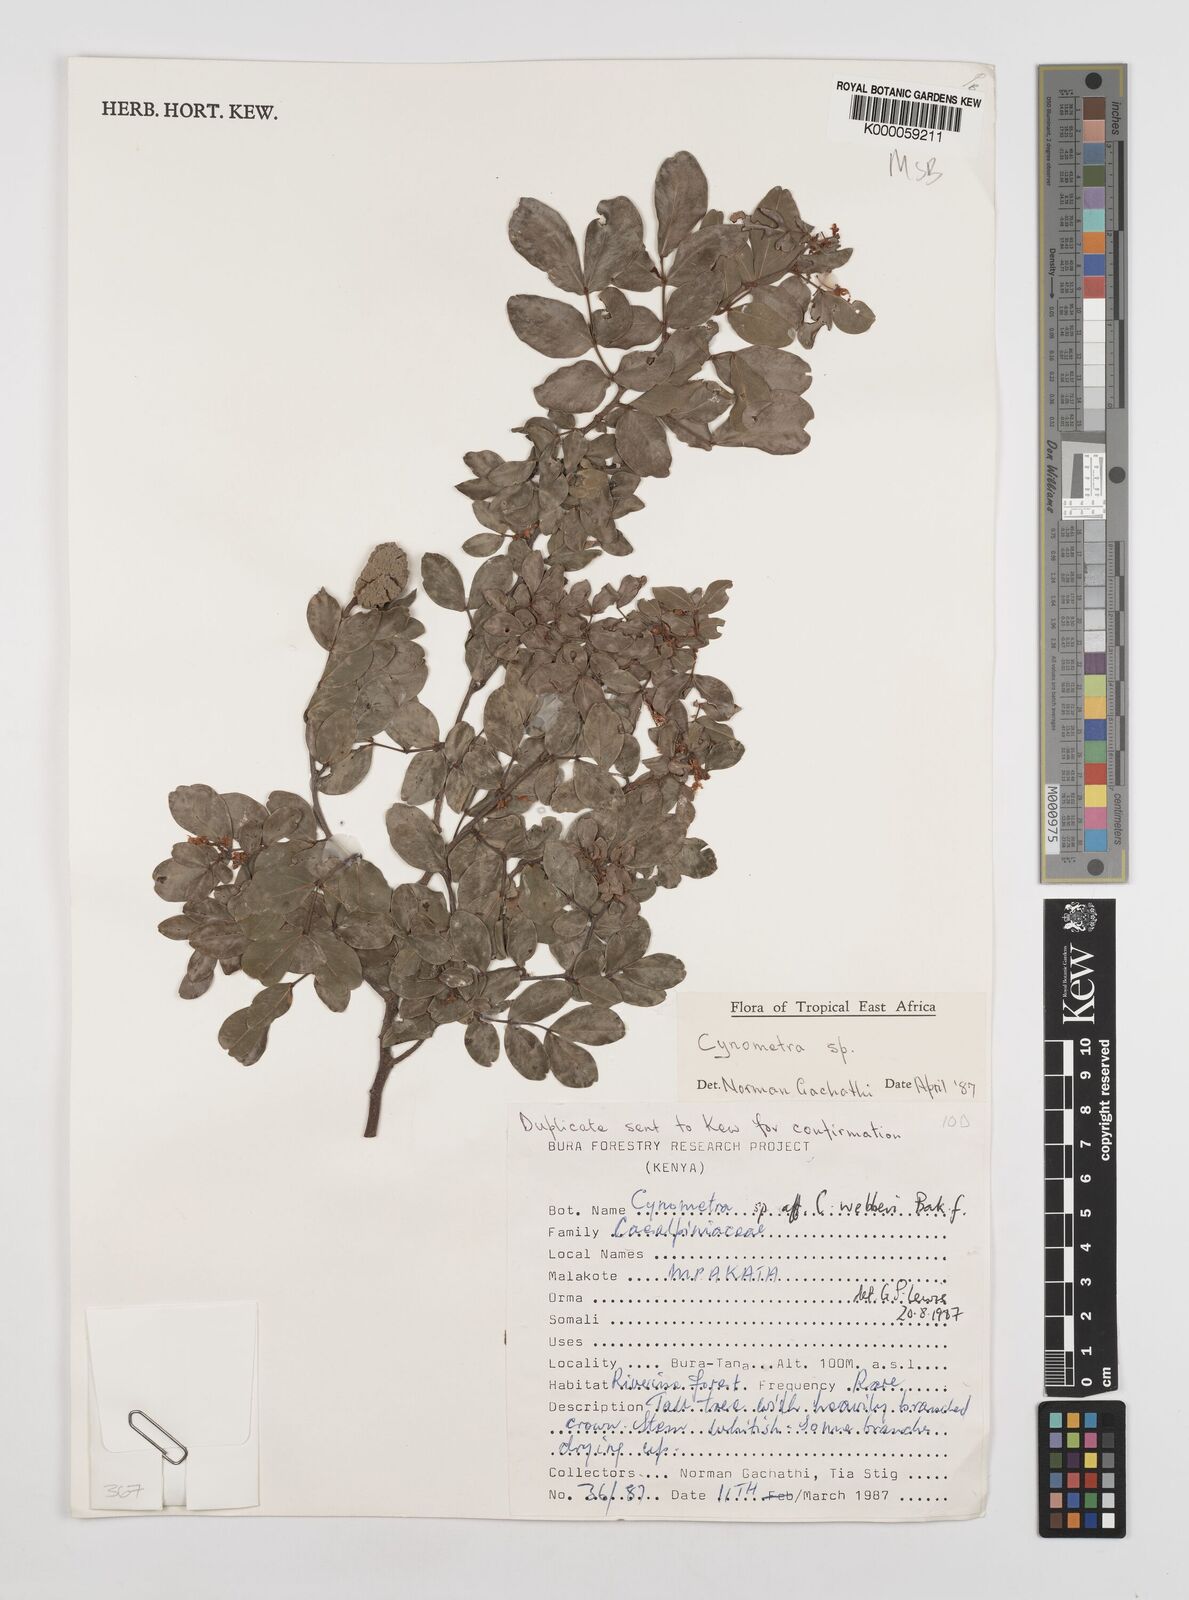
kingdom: Plantae
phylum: Tracheophyta
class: Magnoliopsida
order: Fabales
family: Fabaceae
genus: Cynometra
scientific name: Cynometra lukei
